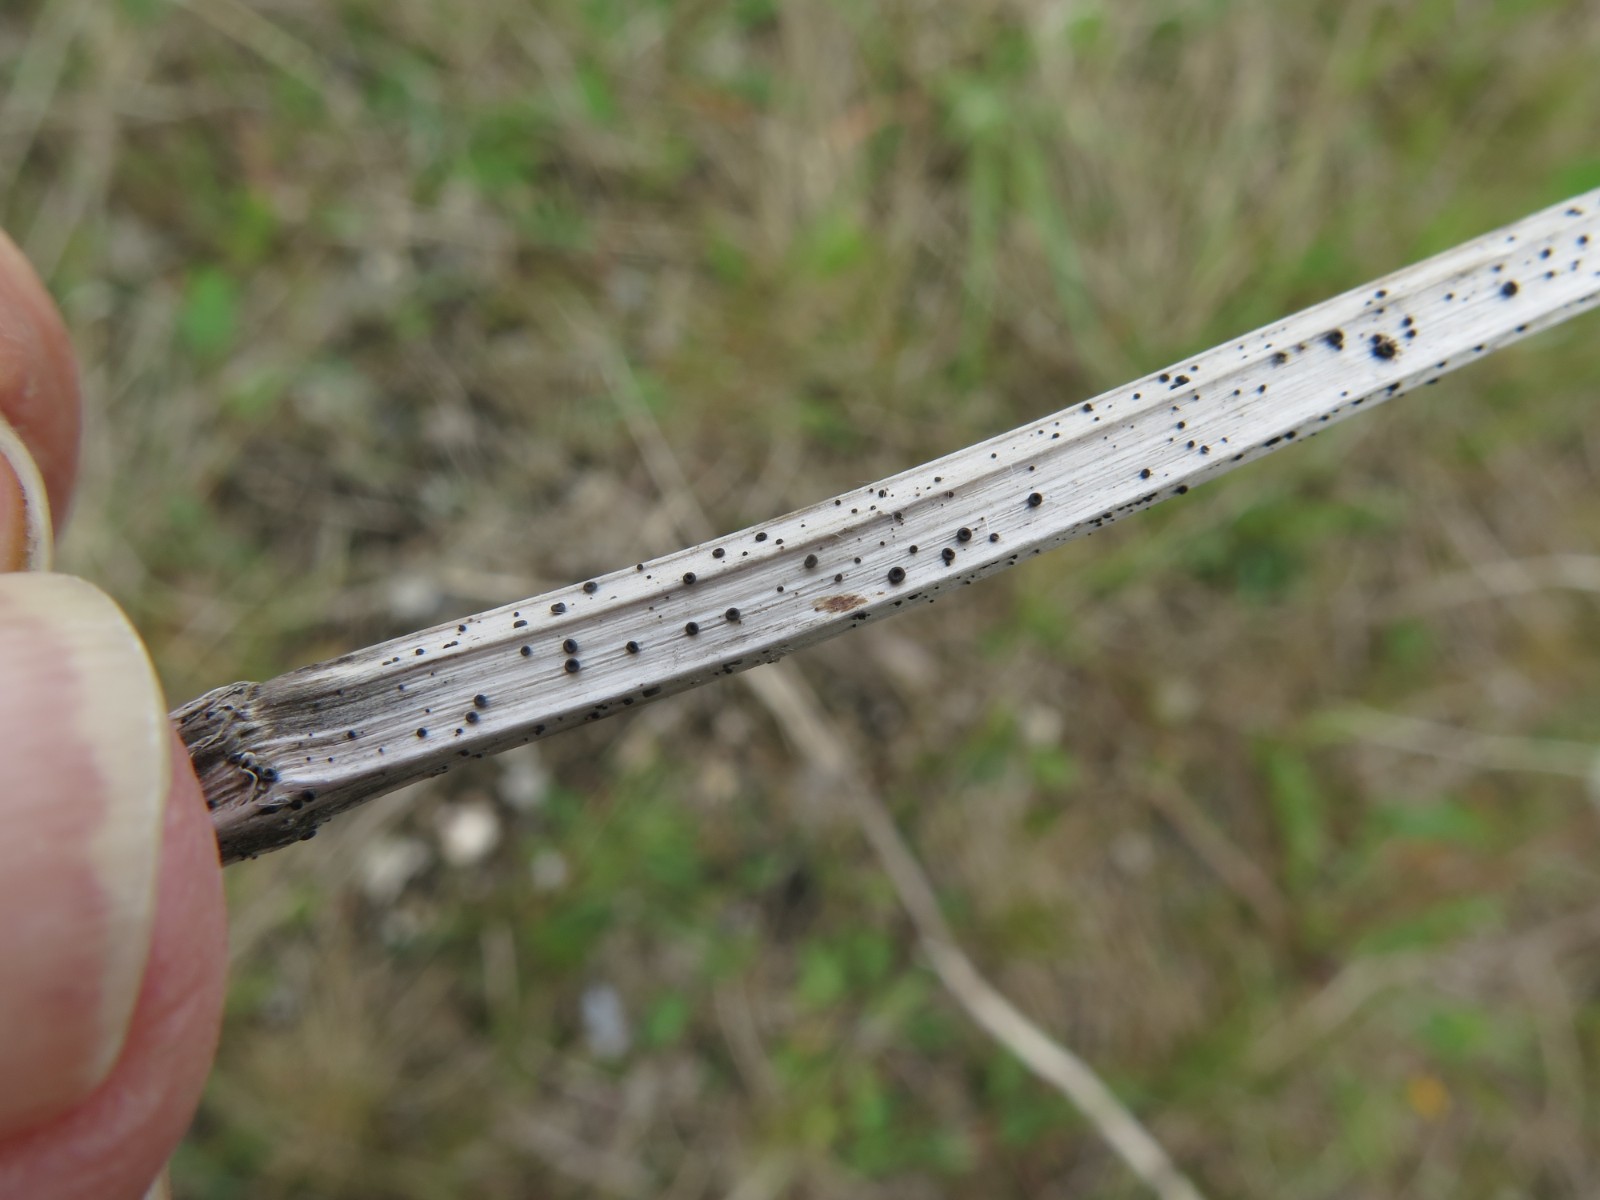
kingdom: Fungi
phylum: Ascomycota
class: Leotiomycetes
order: Helotiales
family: Heterosphaeriaceae
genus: Heterosphaeria
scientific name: Heterosphaeria
